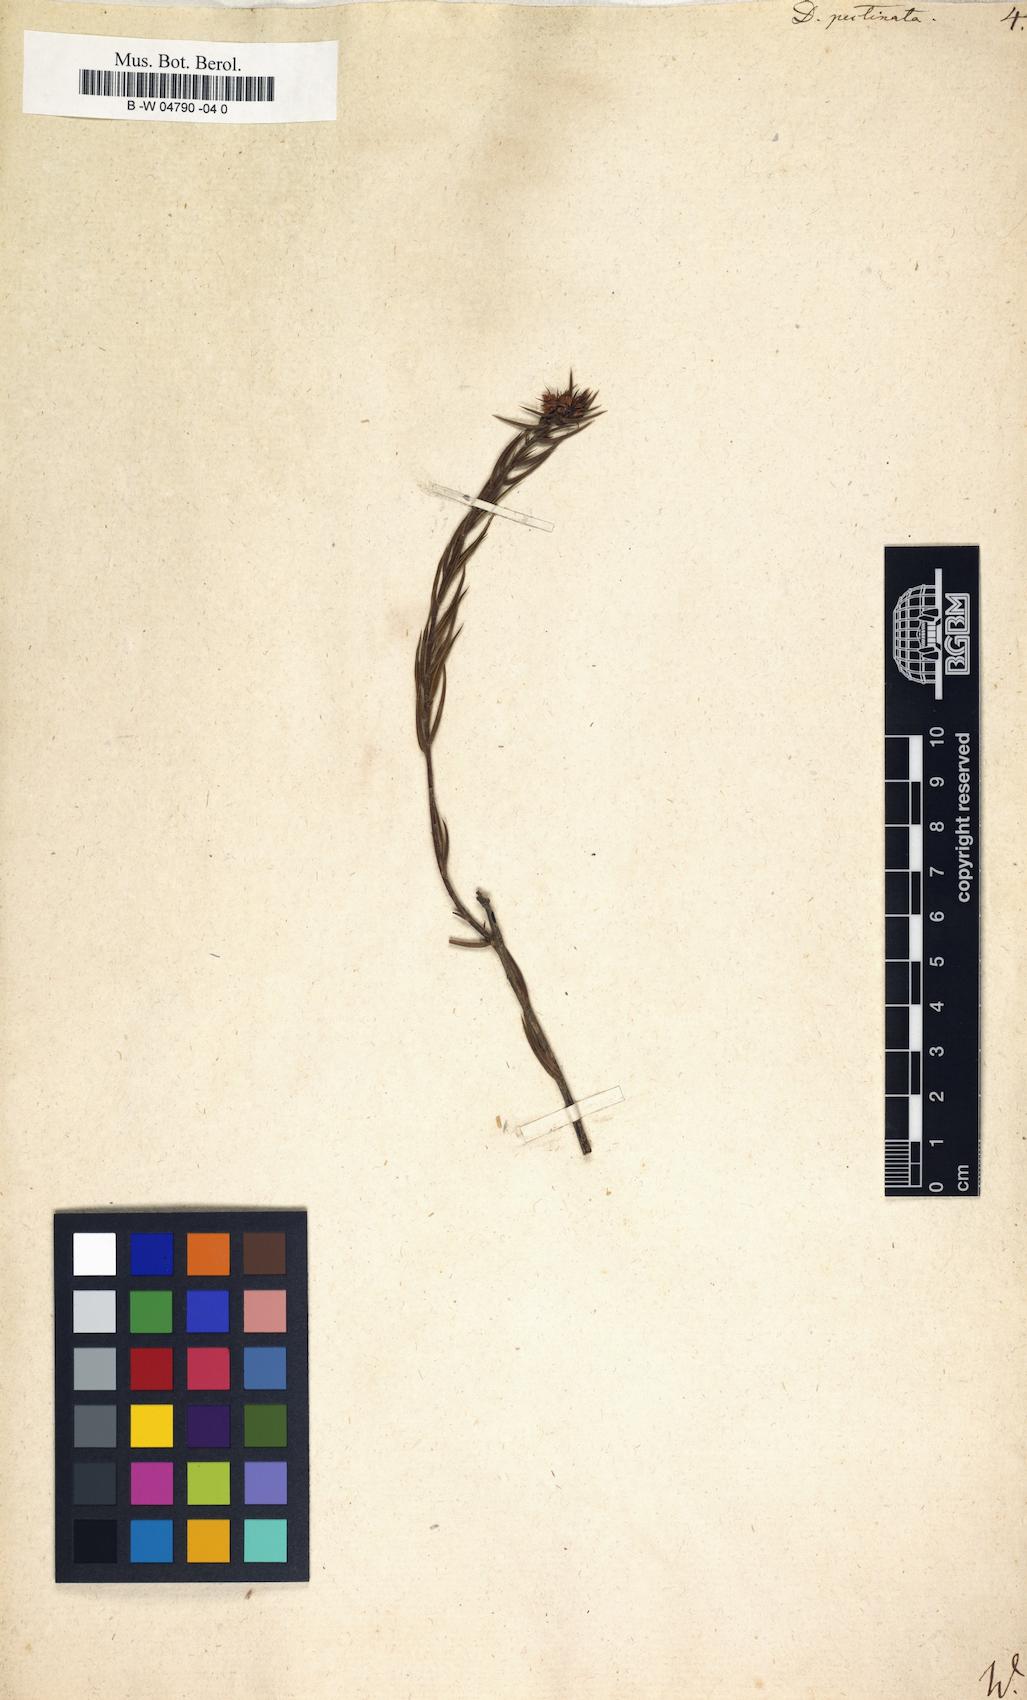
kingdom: Plantae
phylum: Tracheophyta
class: Magnoliopsida
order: Sapindales
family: Rutaceae
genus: Diosma
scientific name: Diosma hirsuta
